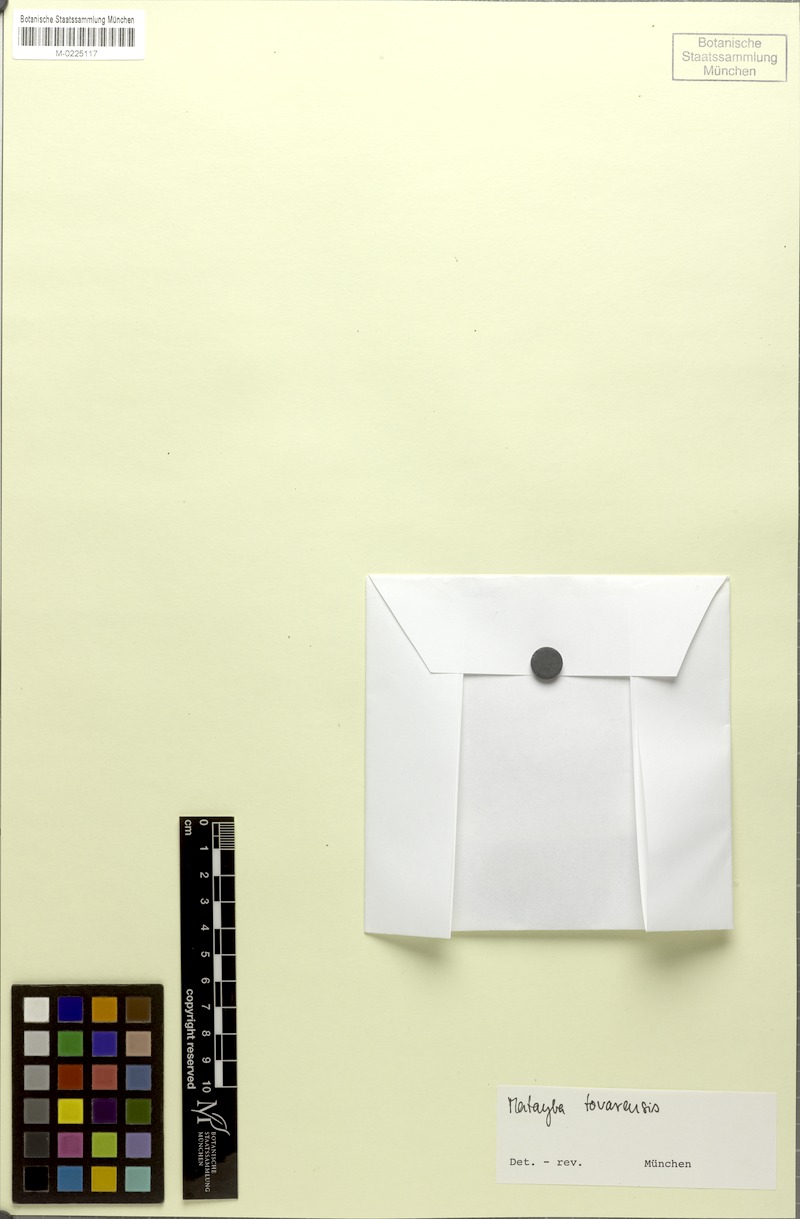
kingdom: Plantae
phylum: Tracheophyta
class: Magnoliopsida
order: Sapindales
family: Sapindaceae
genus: Matayba
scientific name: Matayba longipes
